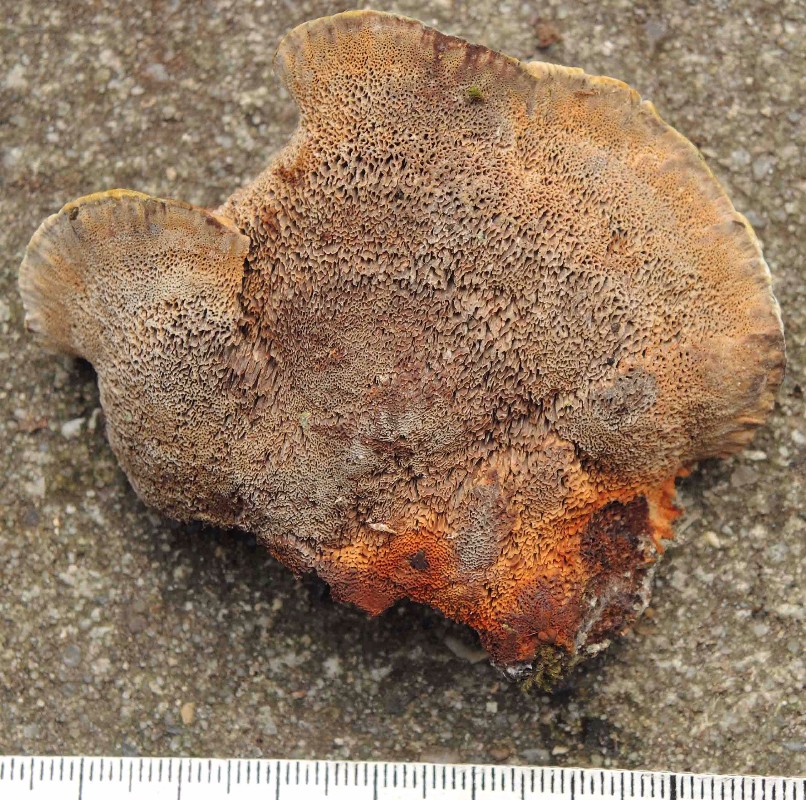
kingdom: Fungi
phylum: Basidiomycota
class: Agaricomycetes
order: Hymenochaetales
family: Hymenochaetaceae
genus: Xanthoporia
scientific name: Xanthoporia radiata
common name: elle-spejlporesvamp
